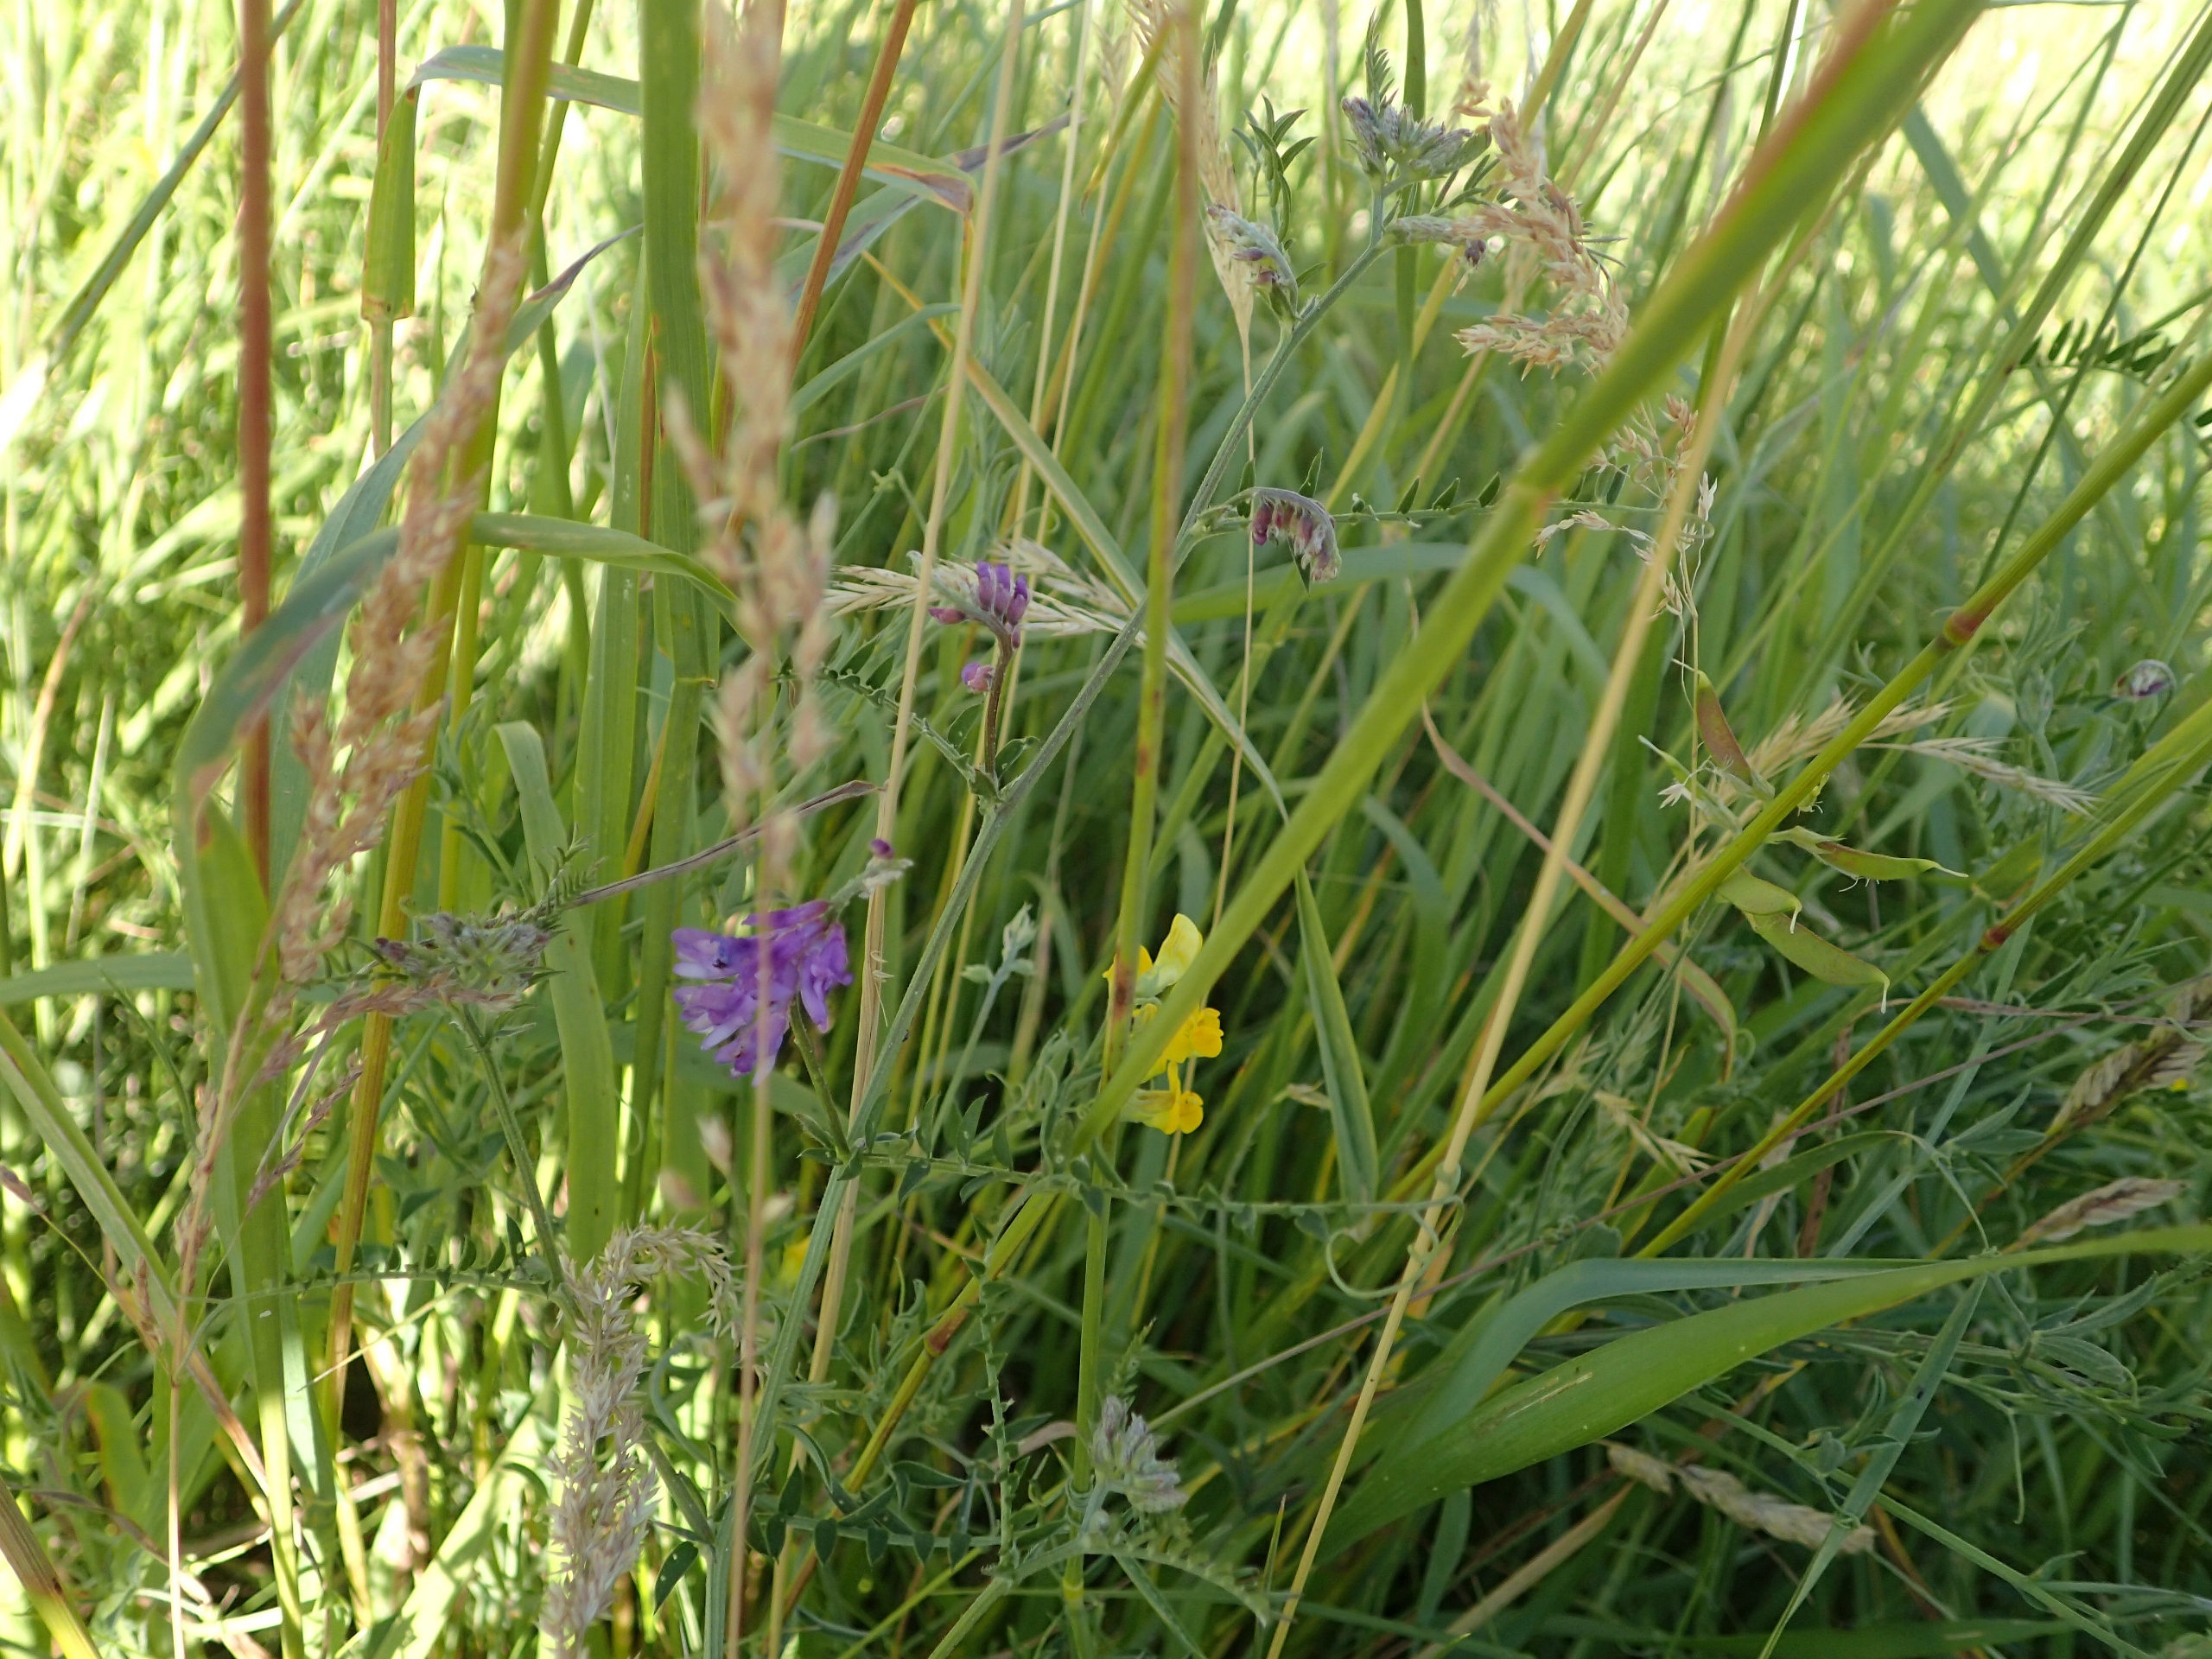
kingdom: Plantae
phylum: Tracheophyta
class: Magnoliopsida
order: Fabales
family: Fabaceae
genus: Vicia
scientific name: Vicia cracca
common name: Muse-vikke
